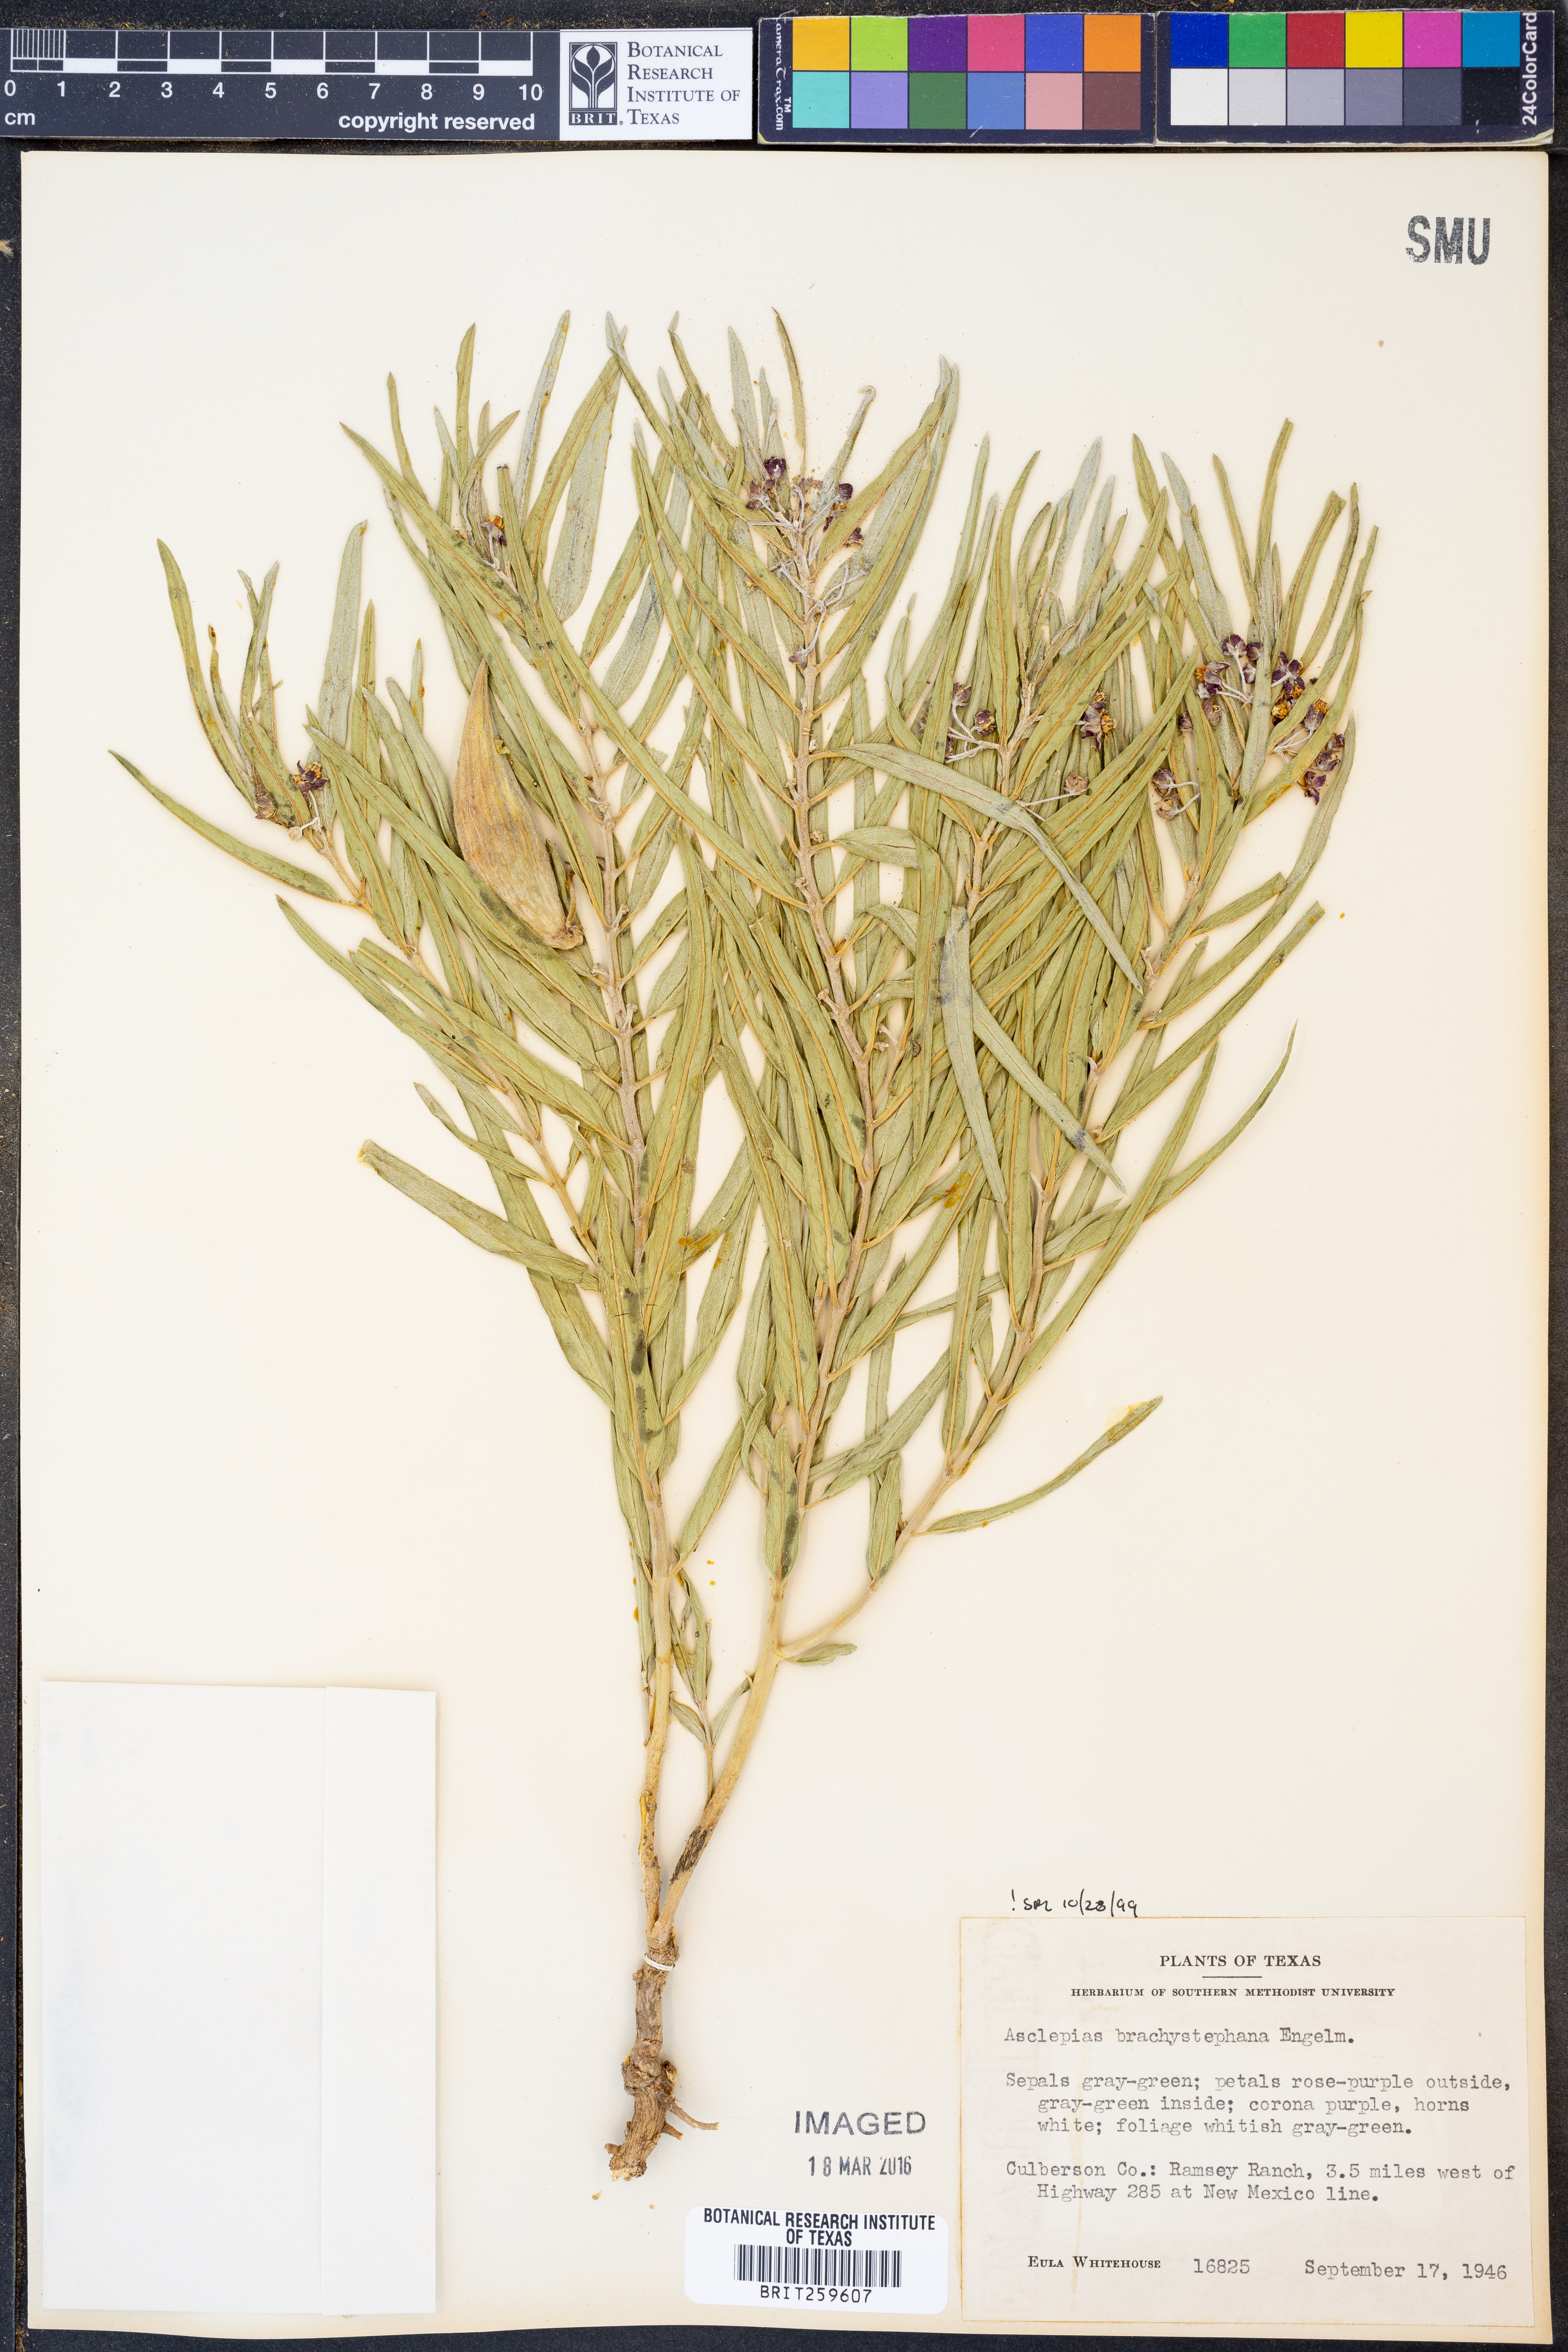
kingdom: Plantae
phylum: Tracheophyta
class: Magnoliopsida
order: Gentianales
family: Apocynaceae
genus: Asclepias
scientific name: Asclepias brachystephana
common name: Shortcrown milkweed
